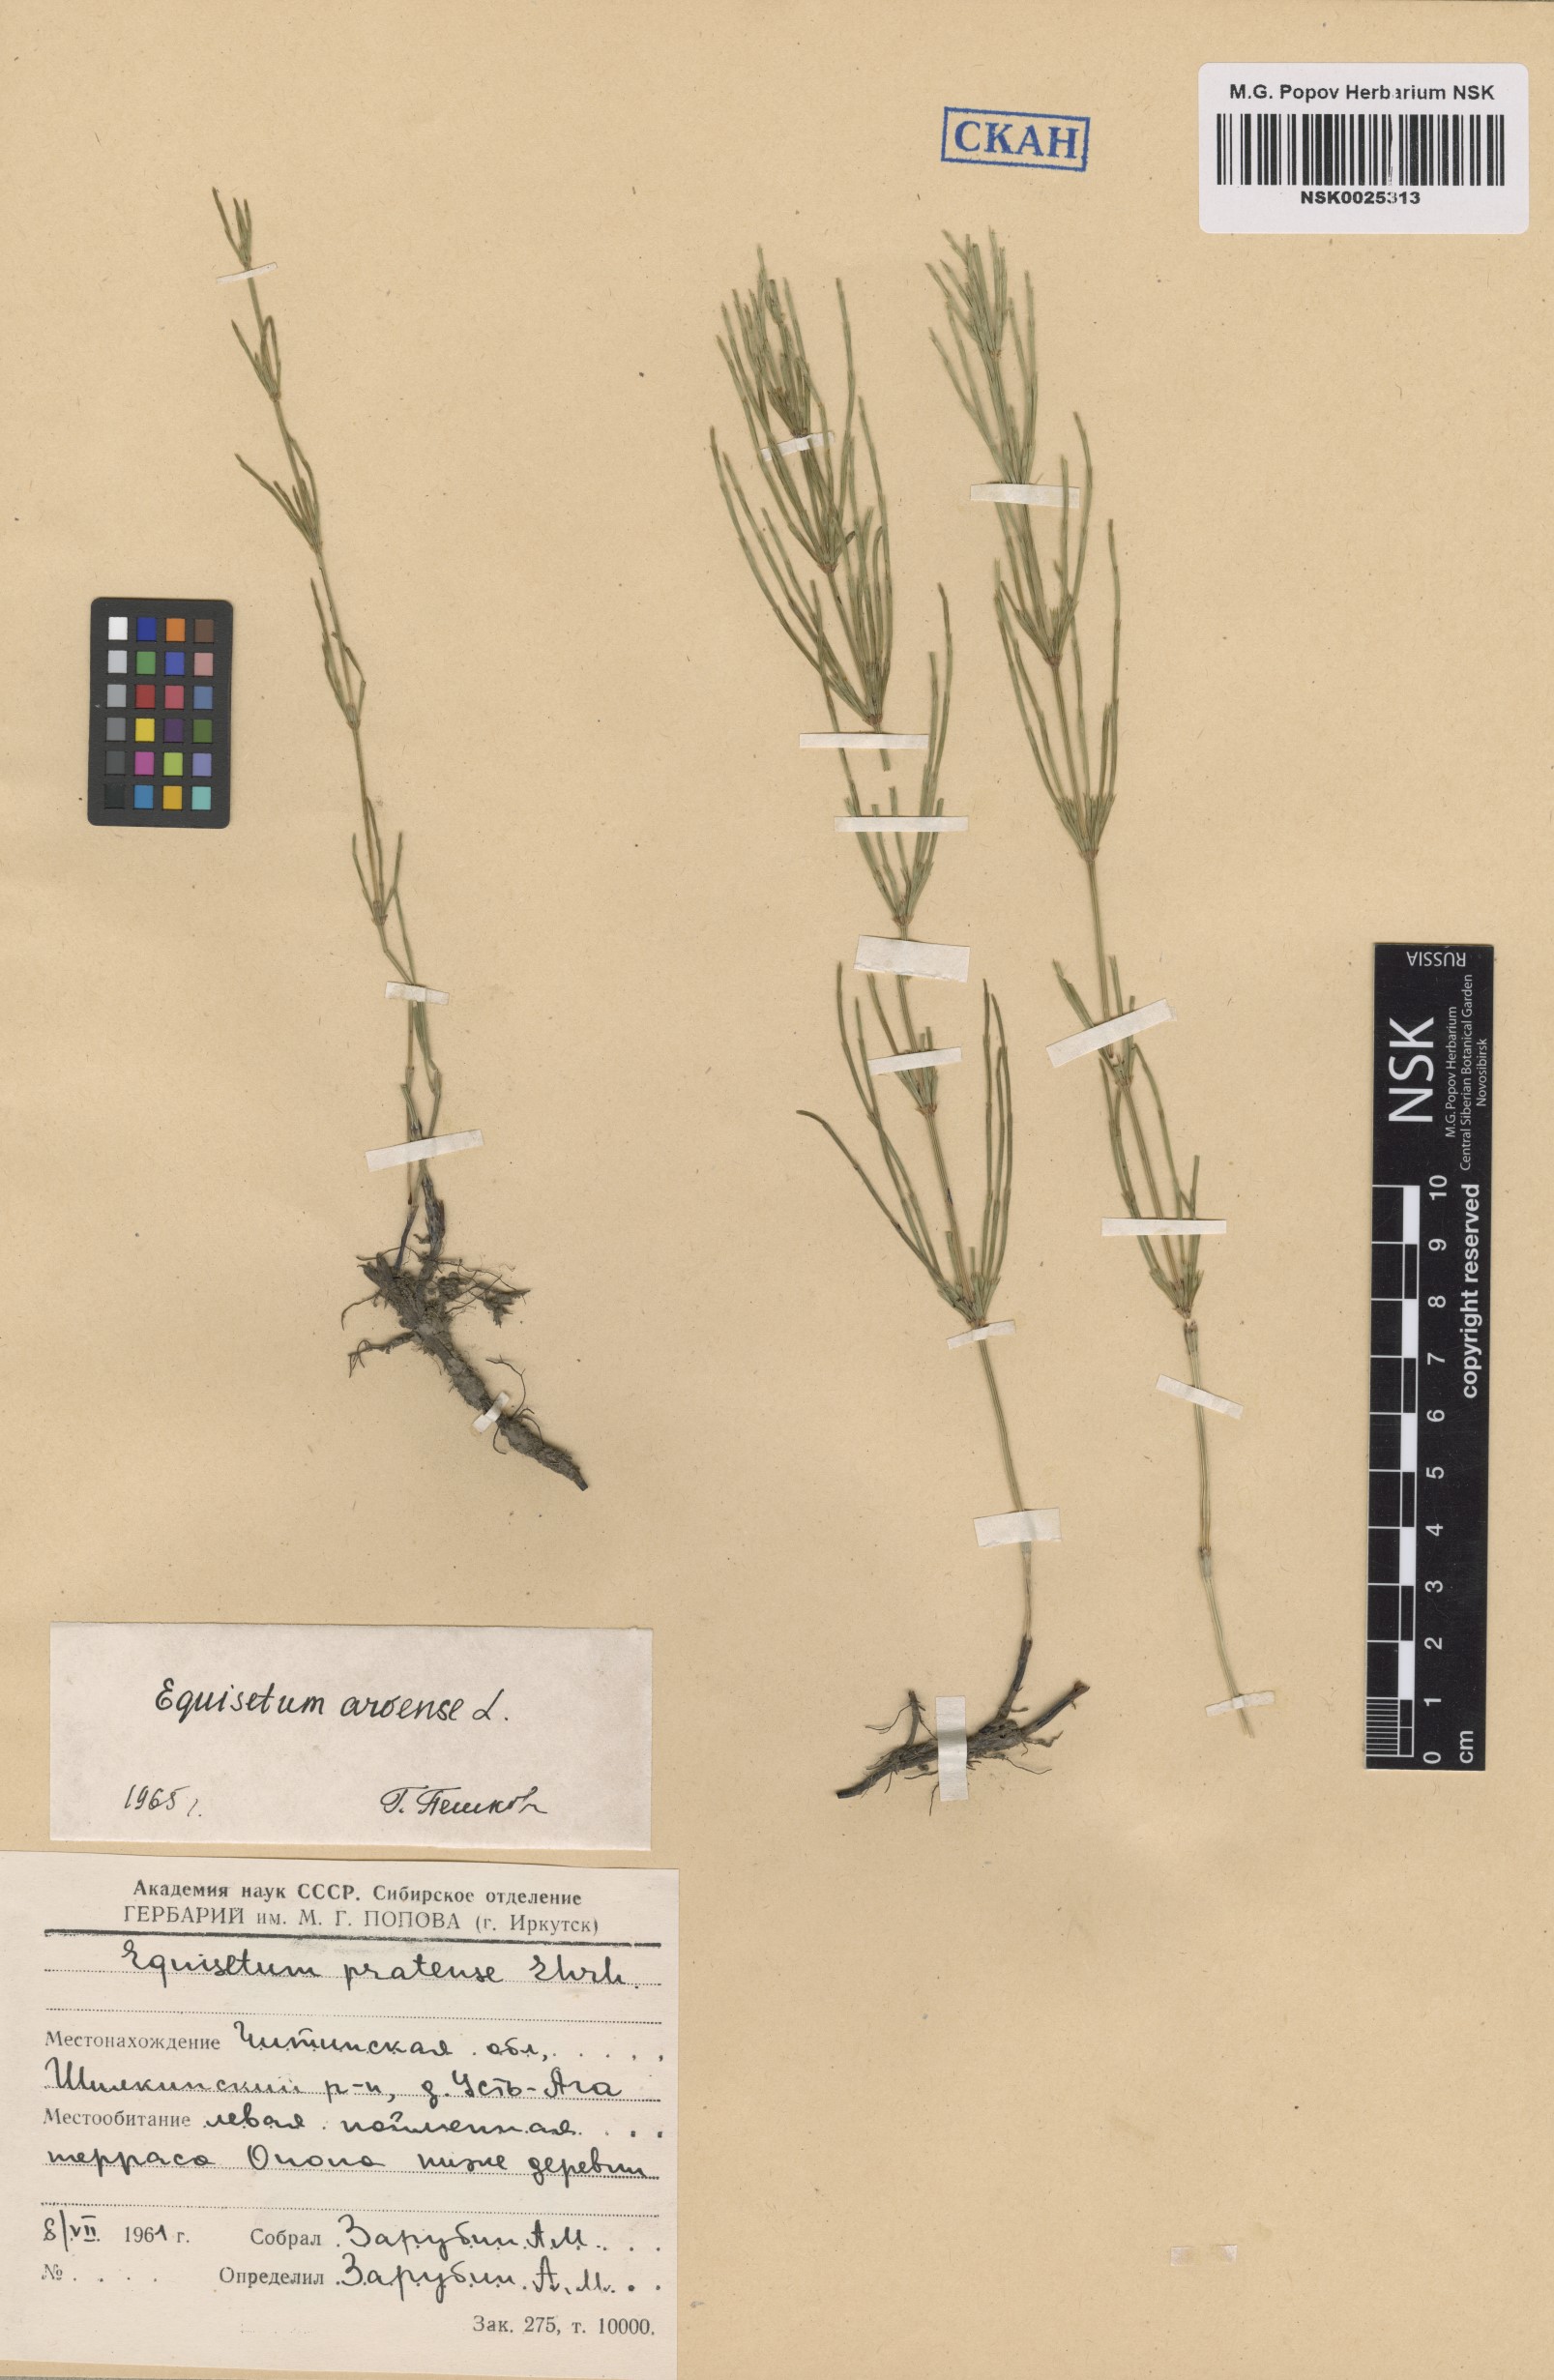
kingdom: Plantae
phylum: Tracheophyta
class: Polypodiopsida
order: Equisetales
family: Equisetaceae
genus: Equisetum
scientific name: Equisetum arvense
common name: Field horsetail
